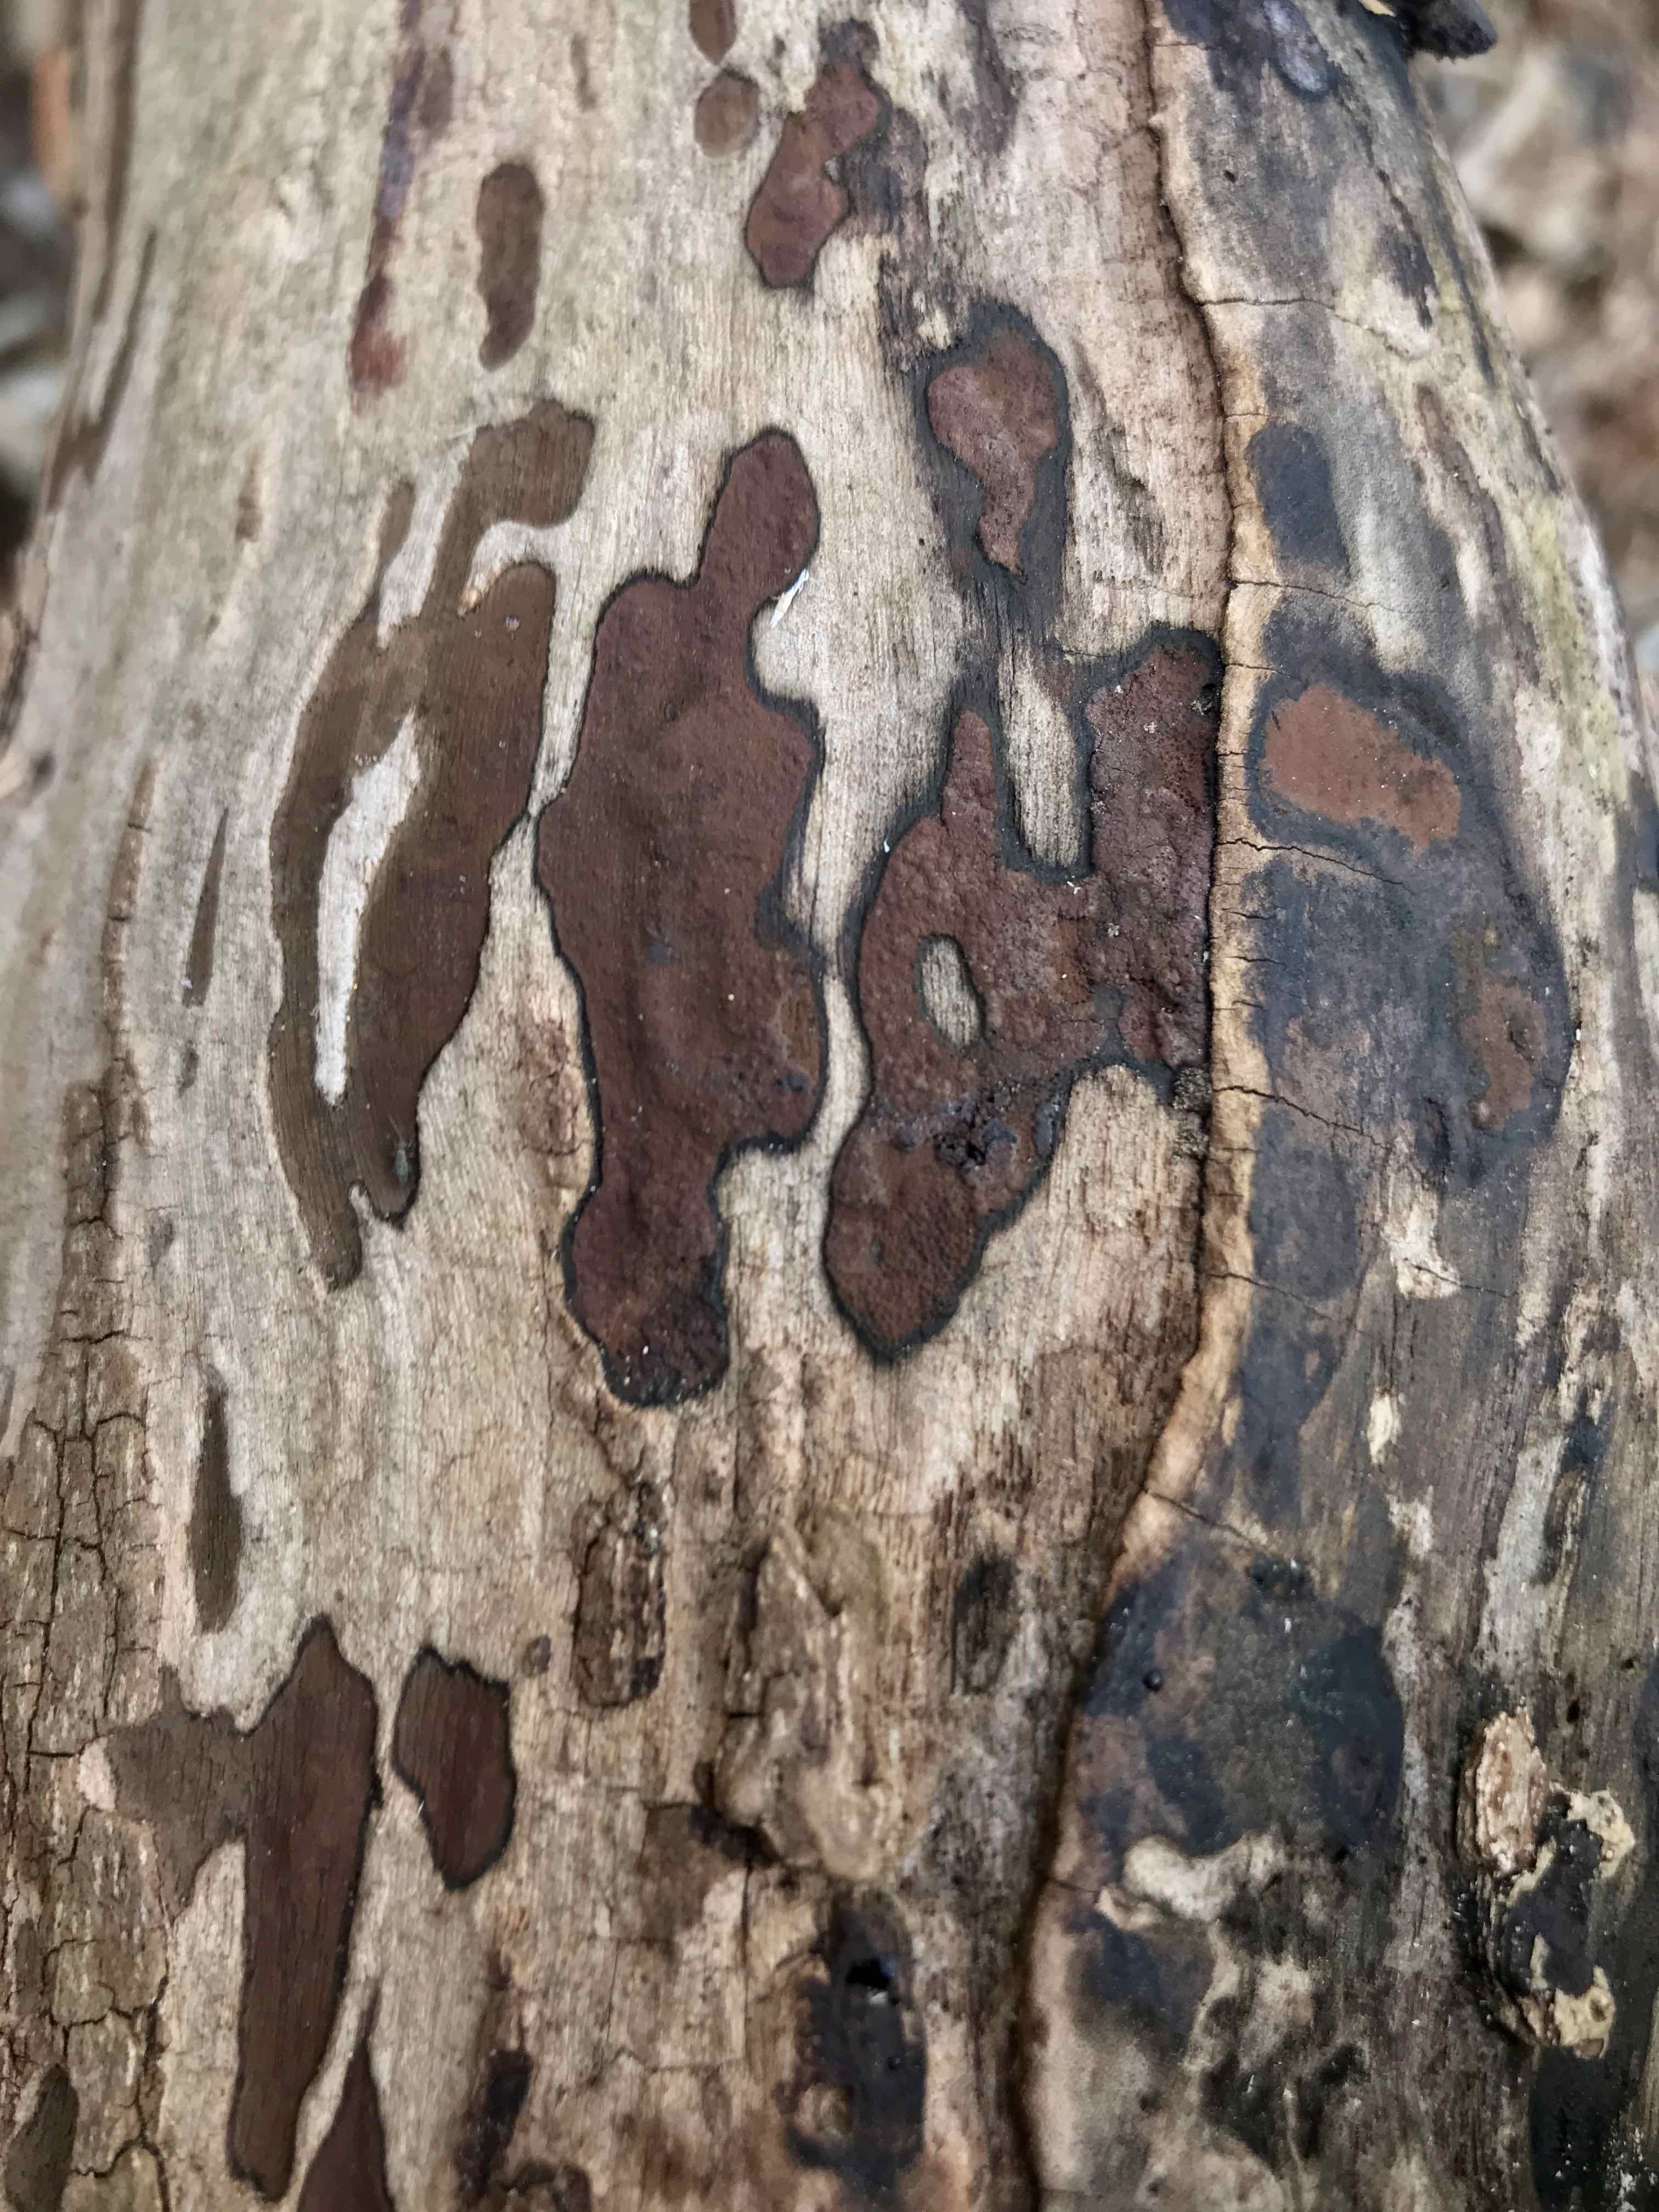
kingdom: Fungi
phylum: Ascomycota
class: Sordariomycetes
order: Xylariales
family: Hypoxylaceae
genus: Hypoxylon
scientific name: Hypoxylon petriniae
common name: nedsænket kulbær
